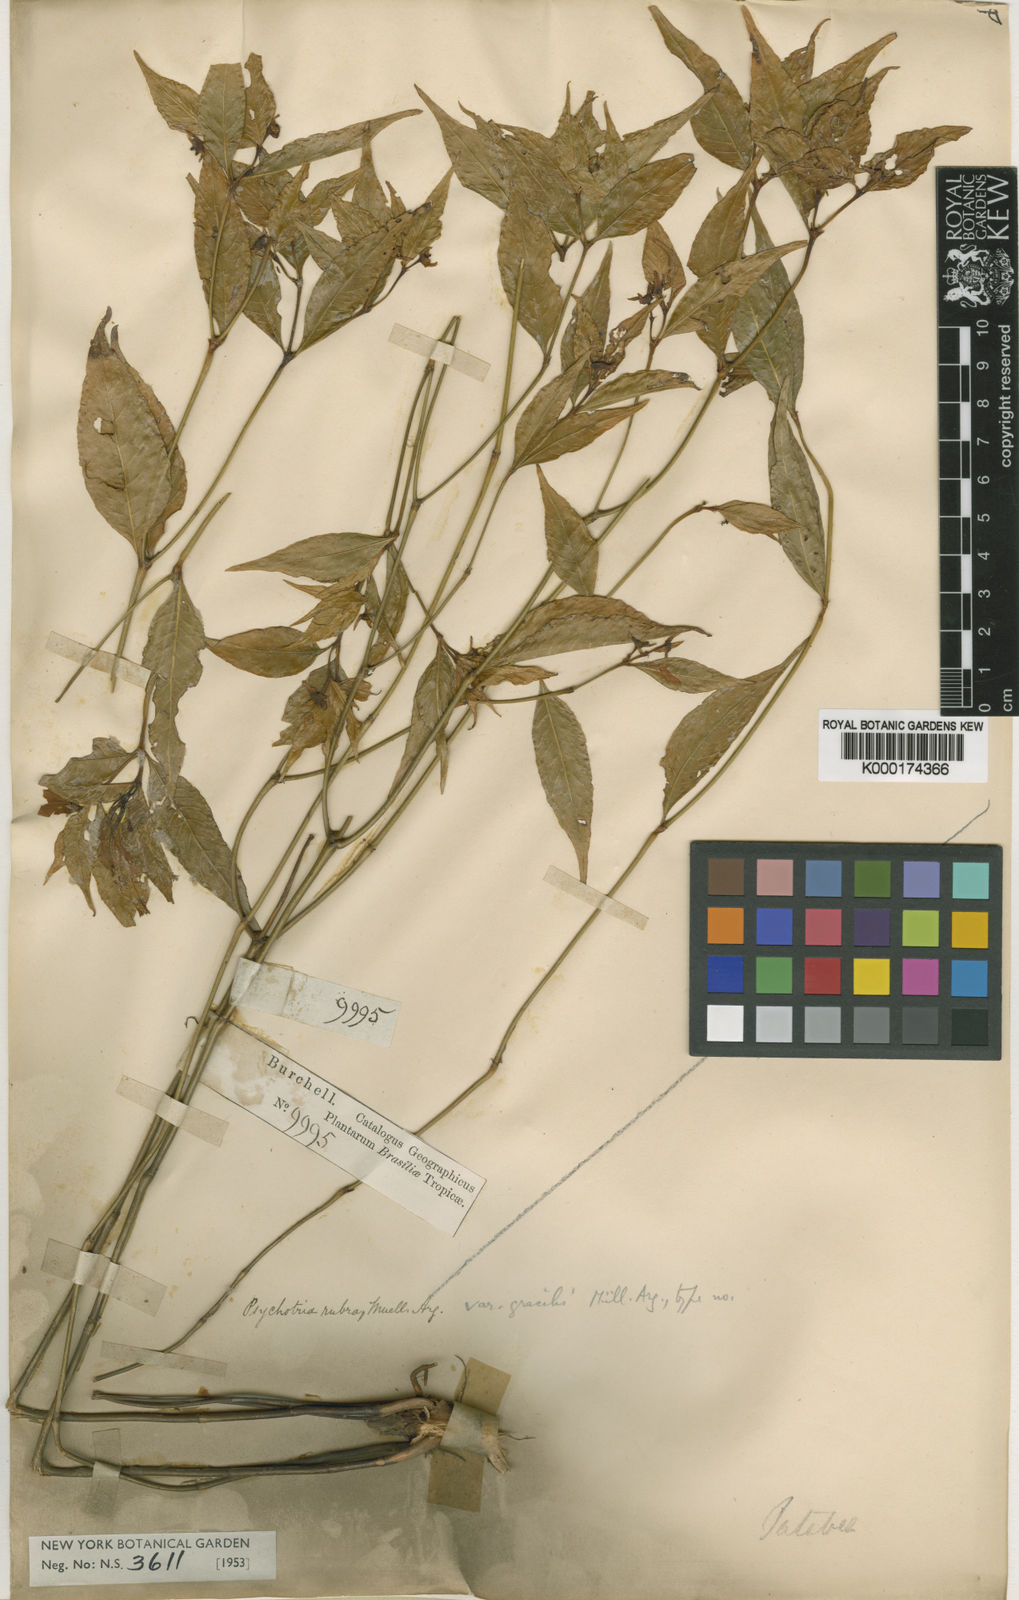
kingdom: Plantae
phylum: Tracheophyta
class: Magnoliopsida
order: Gentianales
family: Rubiaceae
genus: Psychotria
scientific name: Psychotria
